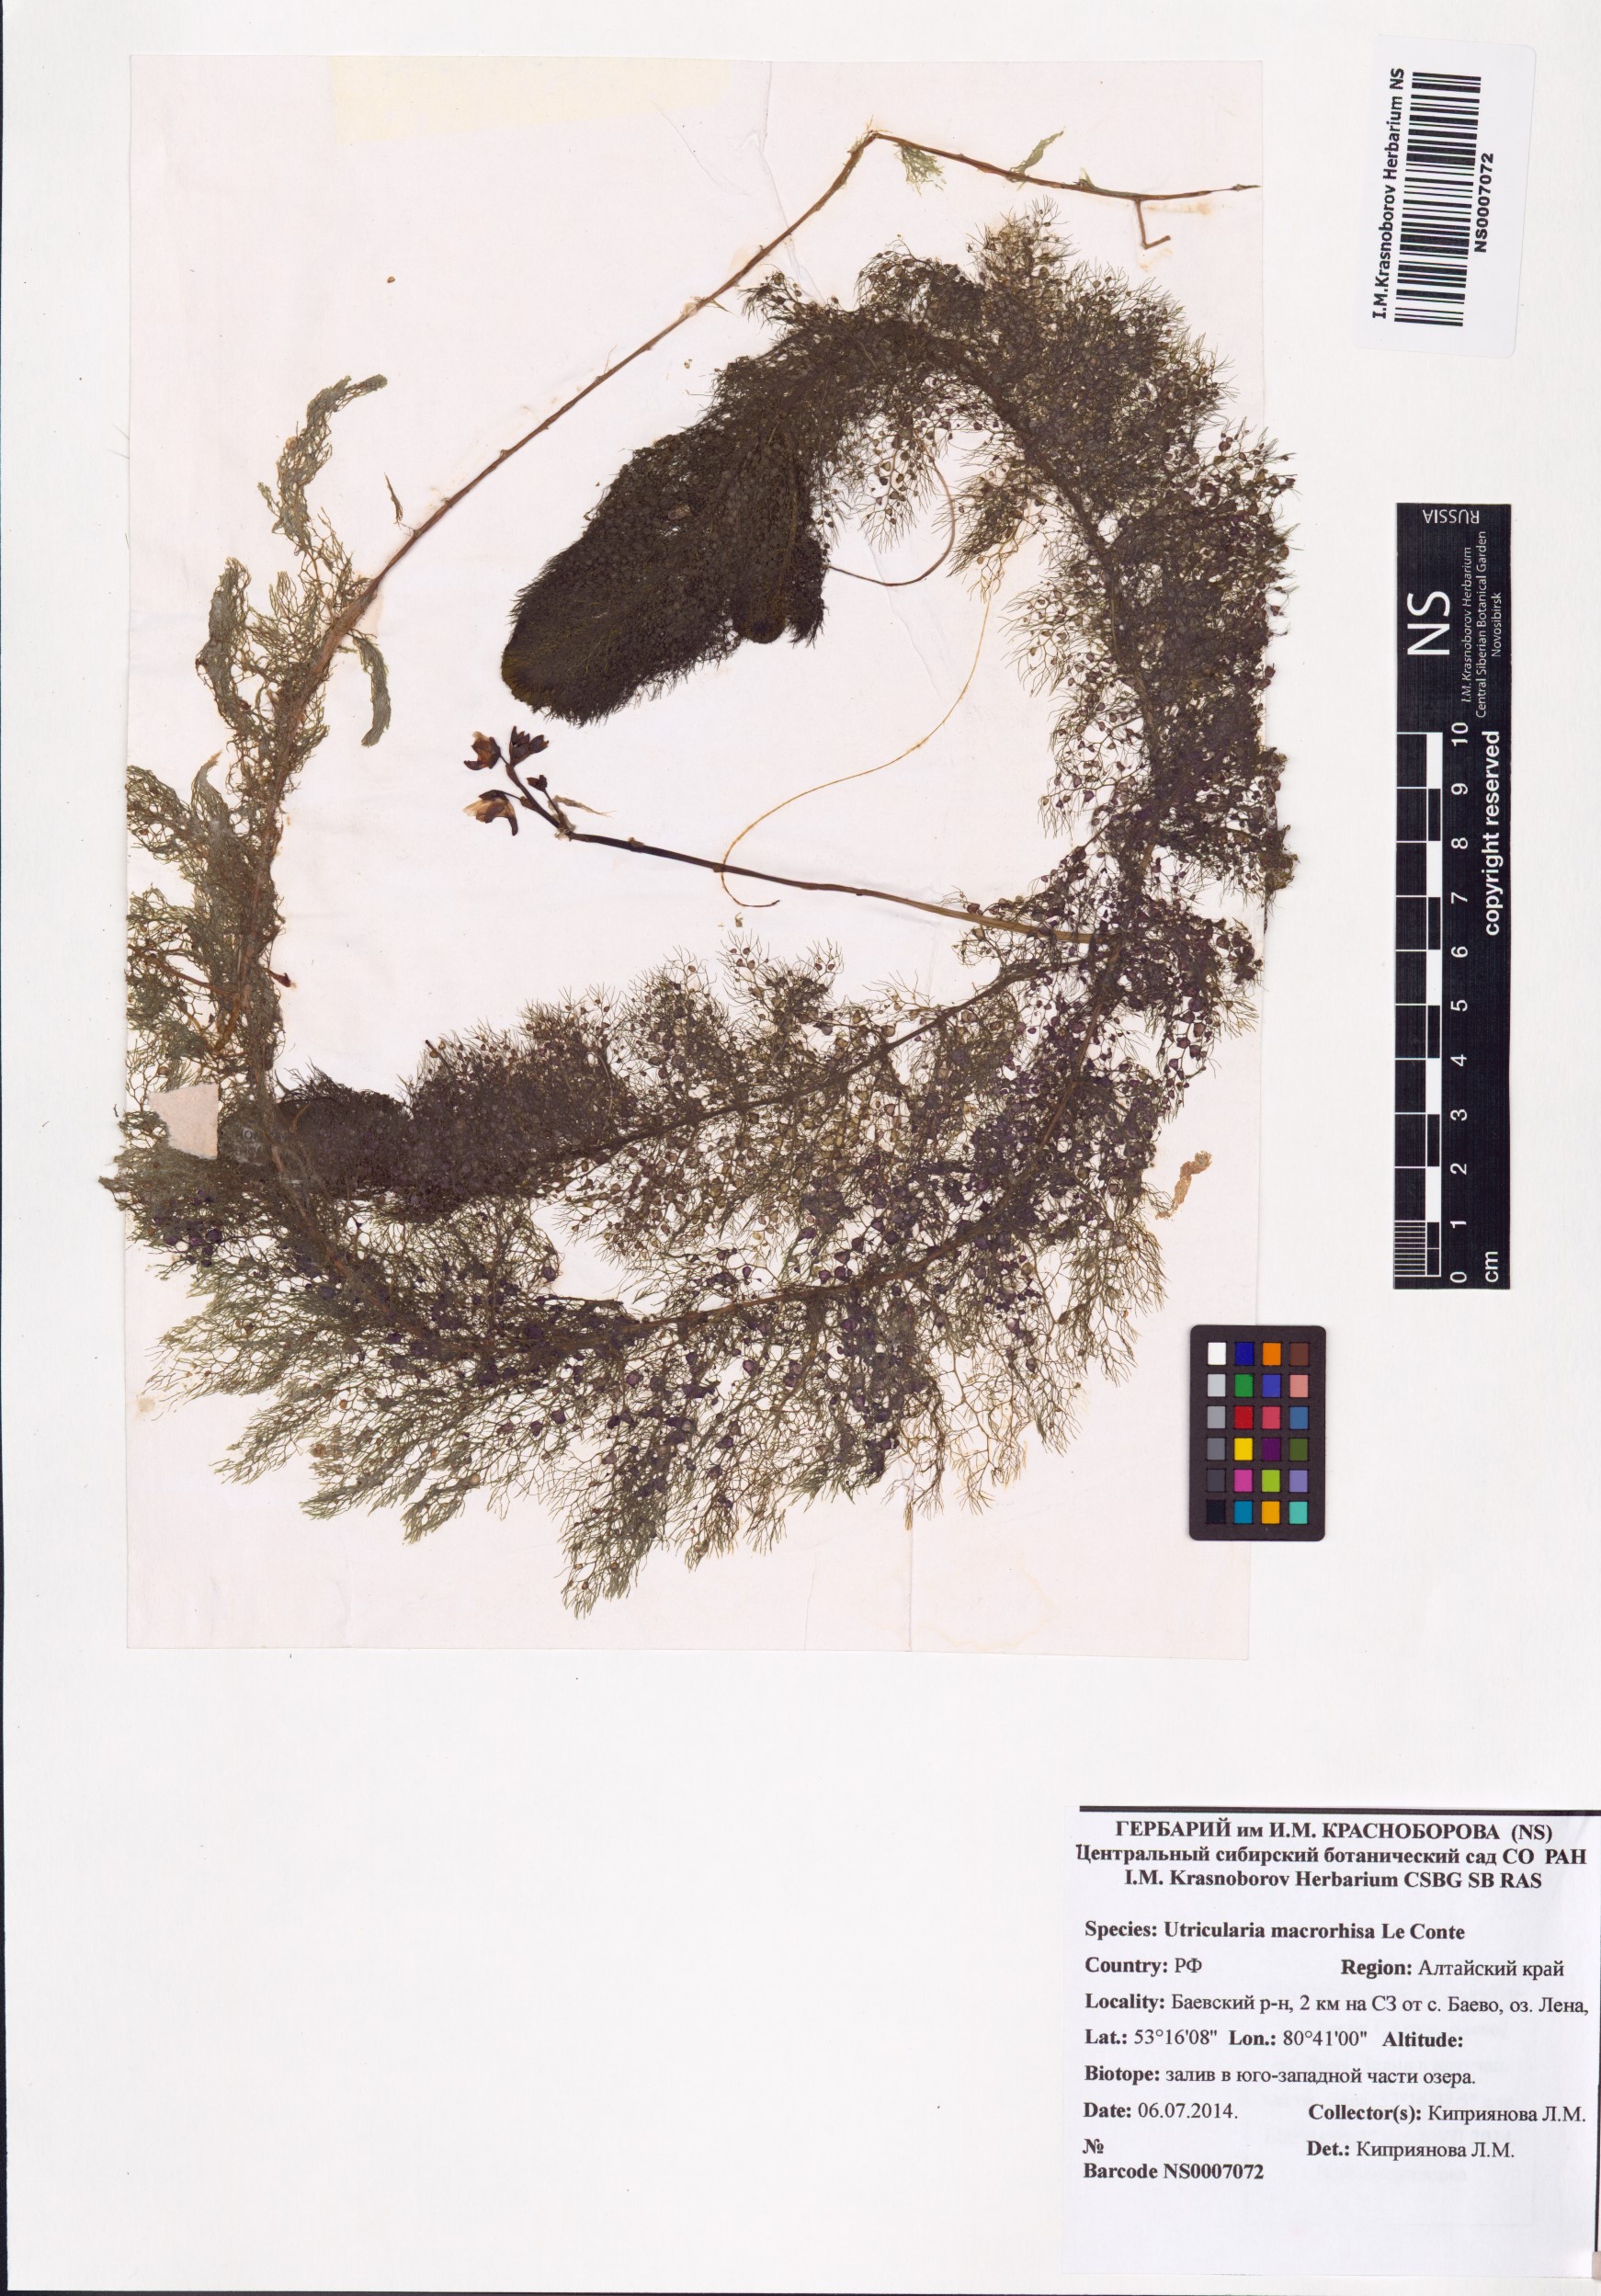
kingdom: Plantae
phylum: Tracheophyta
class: Magnoliopsida
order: Lamiales
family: Lentibulariaceae
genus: Utricularia
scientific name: Utricularia macrorhiza
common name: Common bladderwort
